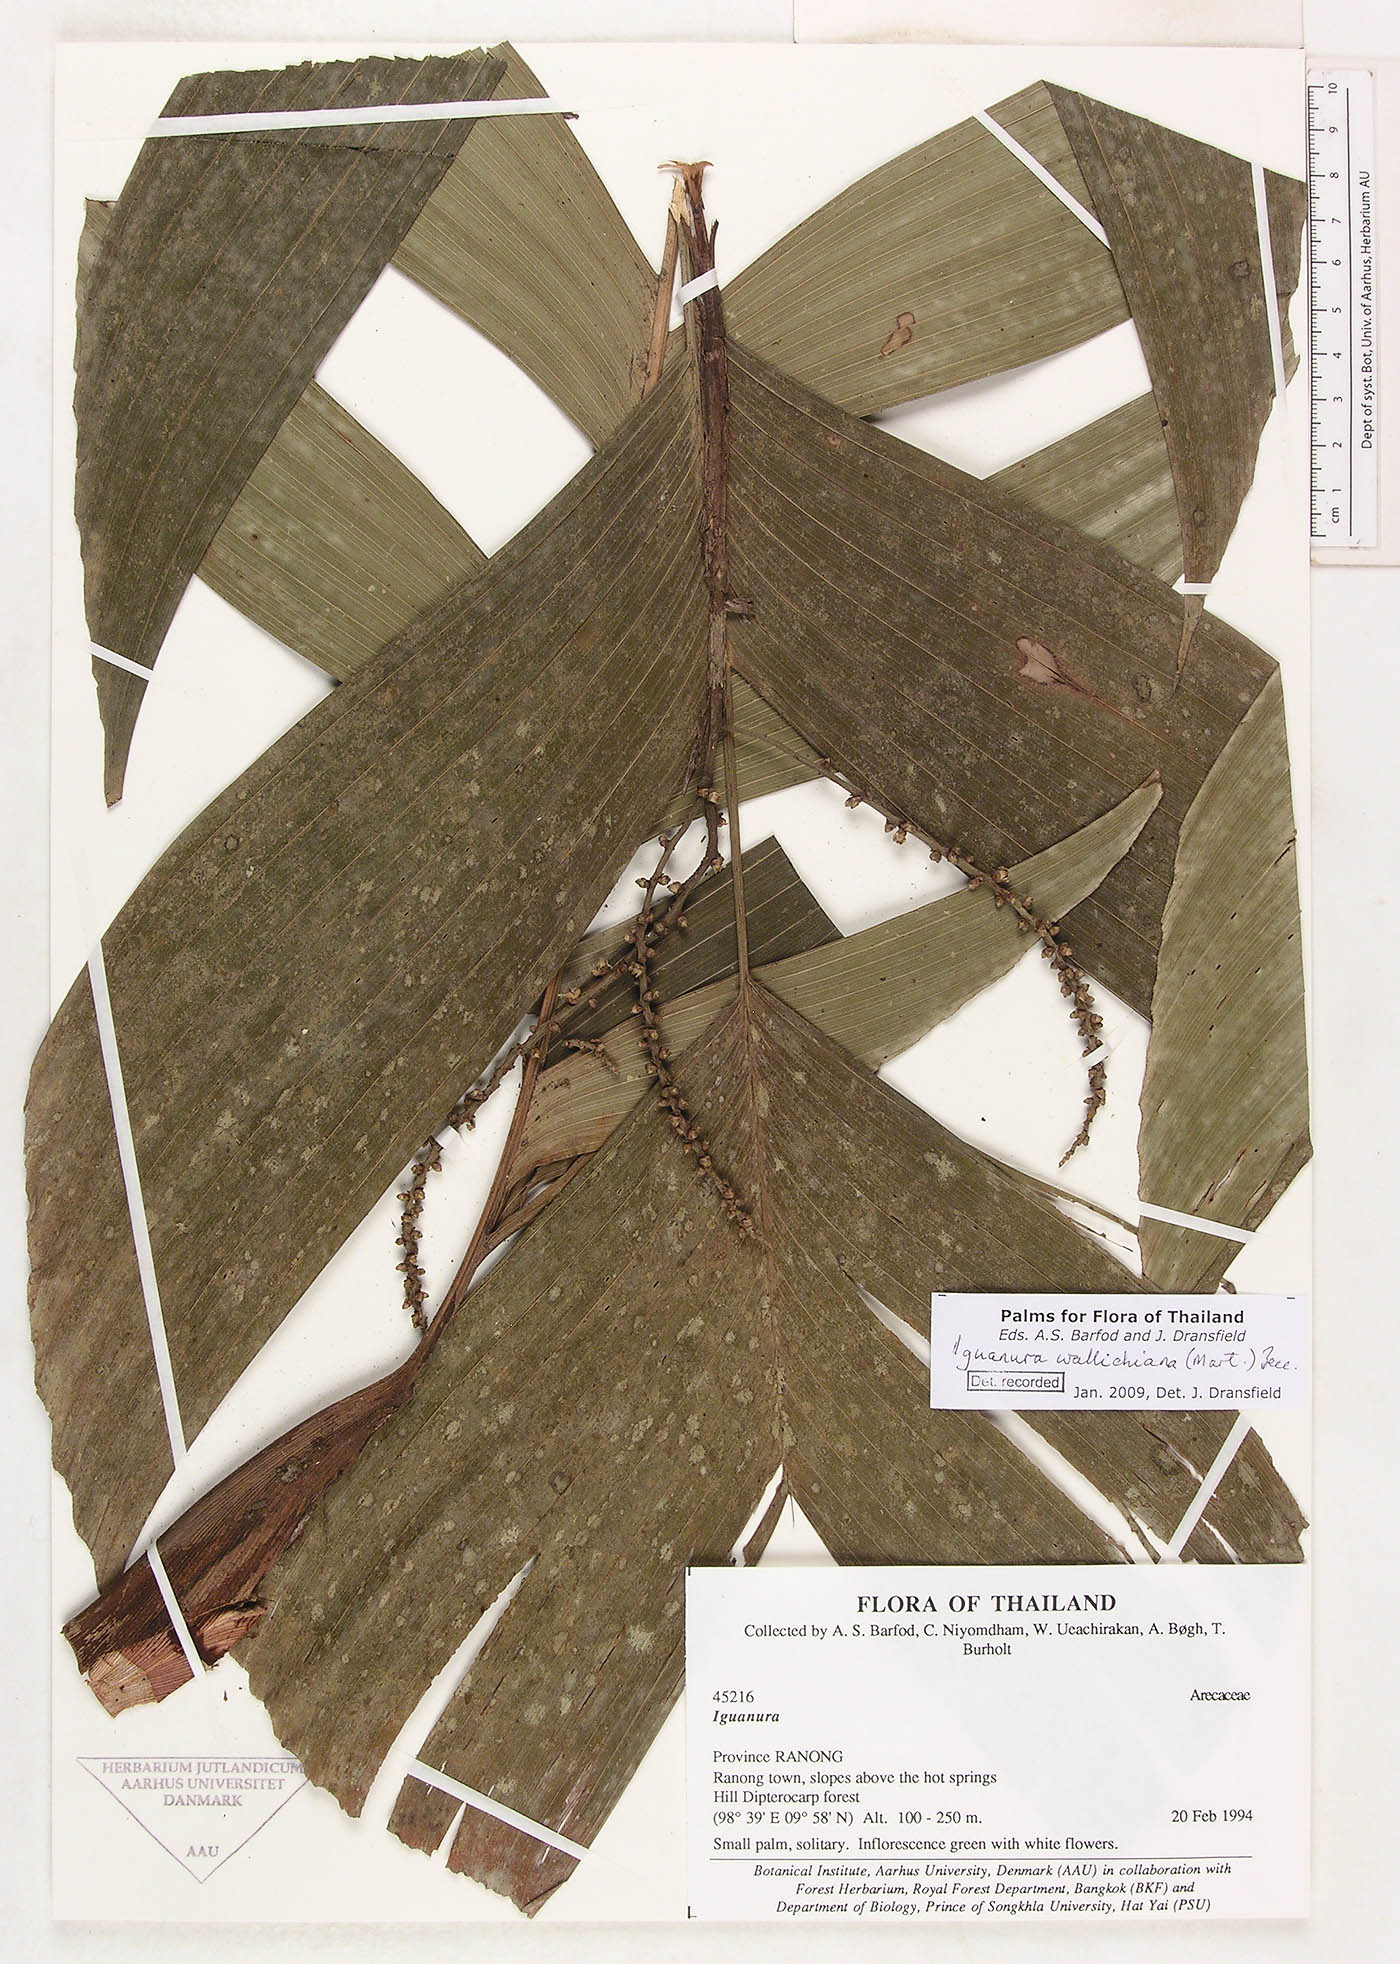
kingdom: Plantae
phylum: Tracheophyta
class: Liliopsida
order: Arecales
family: Arecaceae
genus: Iguanura
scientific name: Iguanura wallichiana
